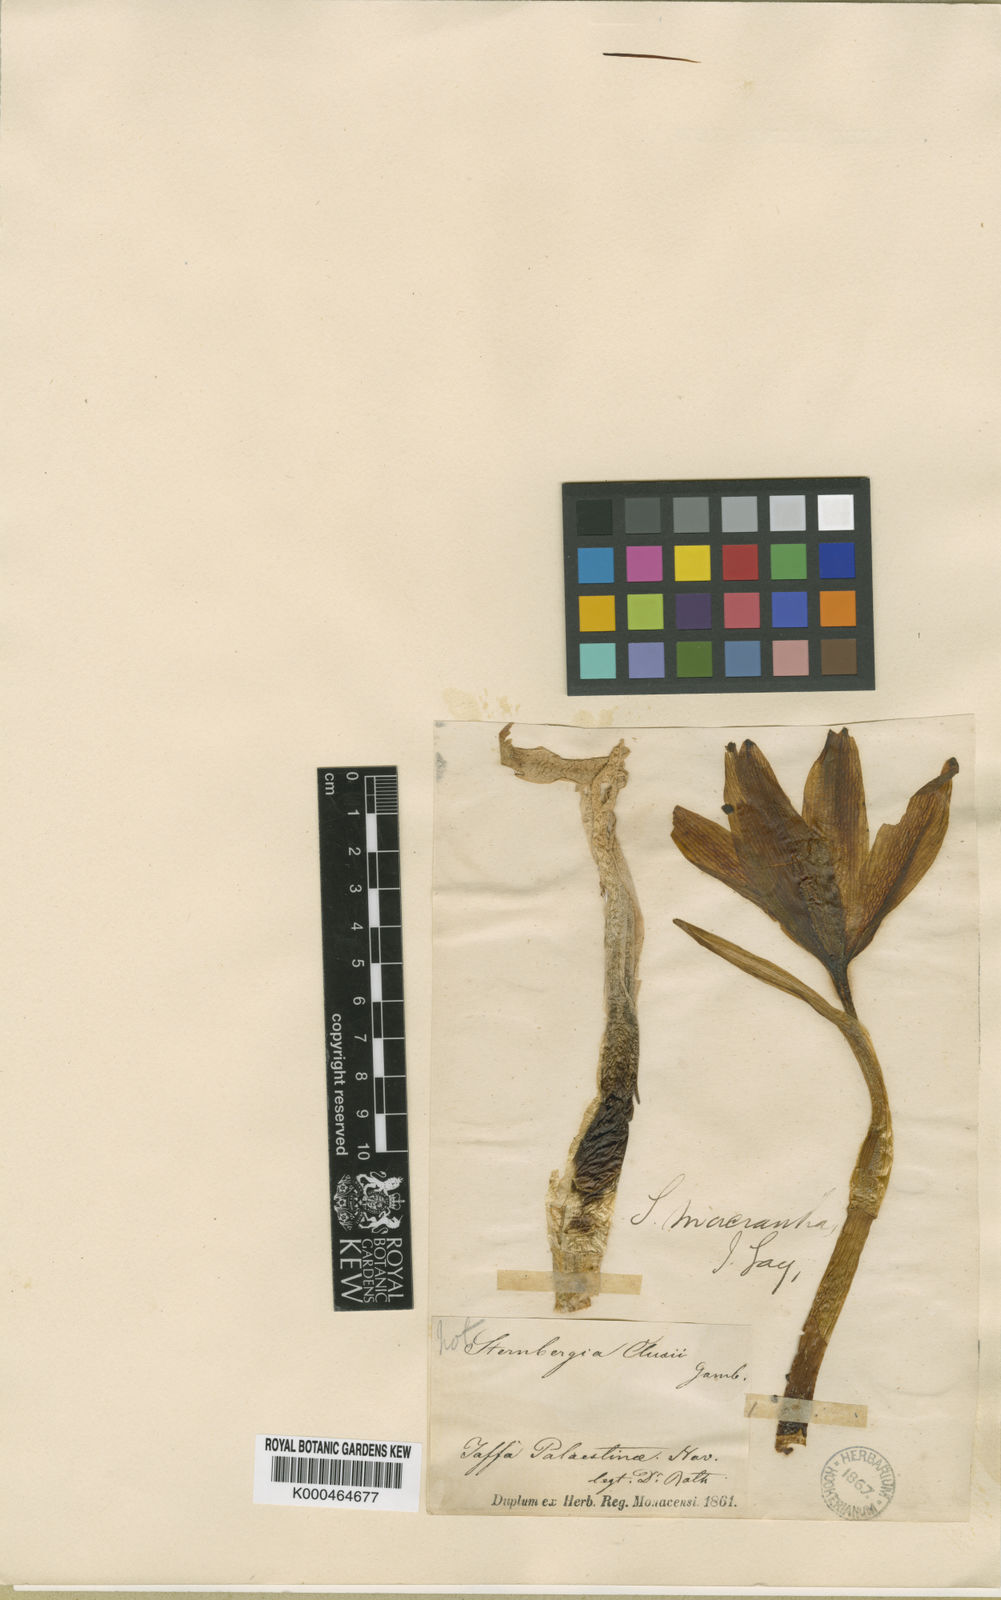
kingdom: Plantae
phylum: Tracheophyta
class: Liliopsida
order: Asparagales
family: Amaryllidaceae
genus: Sternbergia
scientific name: Sternbergia
